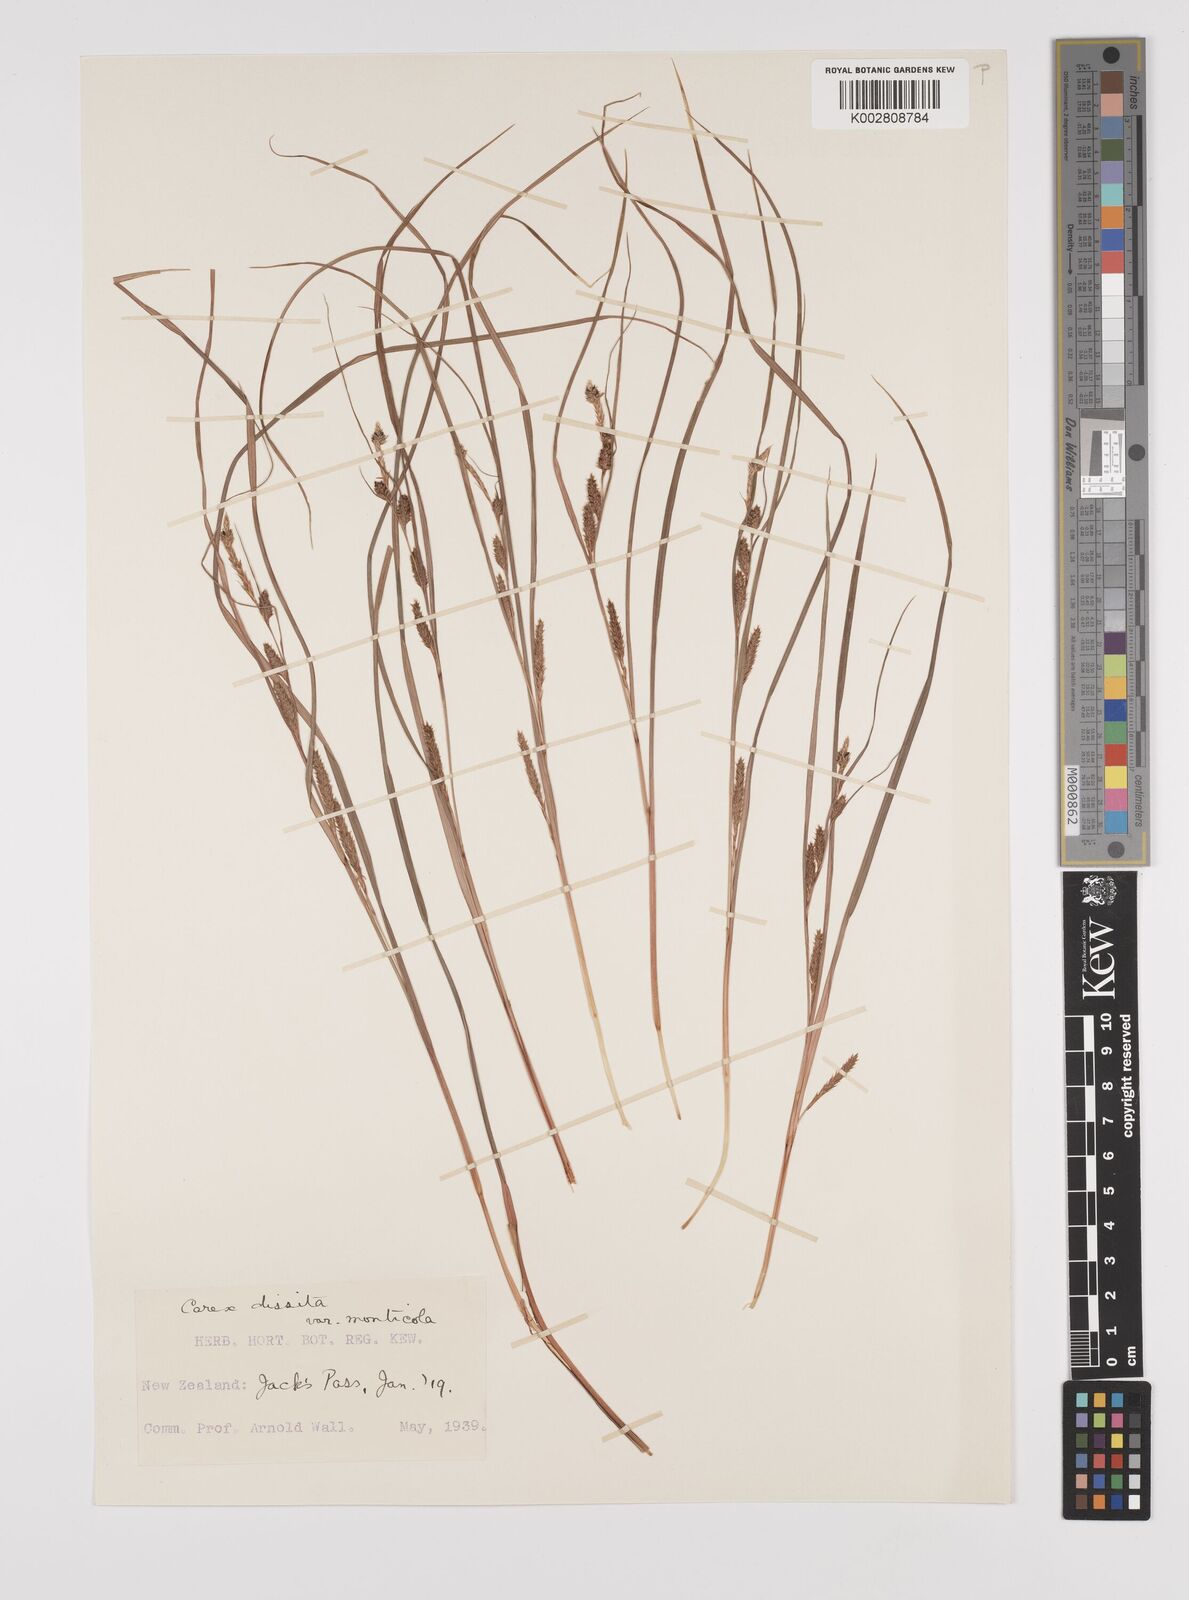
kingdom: Plantae
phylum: Tracheophyta
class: Liliopsida
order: Poales
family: Cyperaceae
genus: Carex
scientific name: Carex dissita
